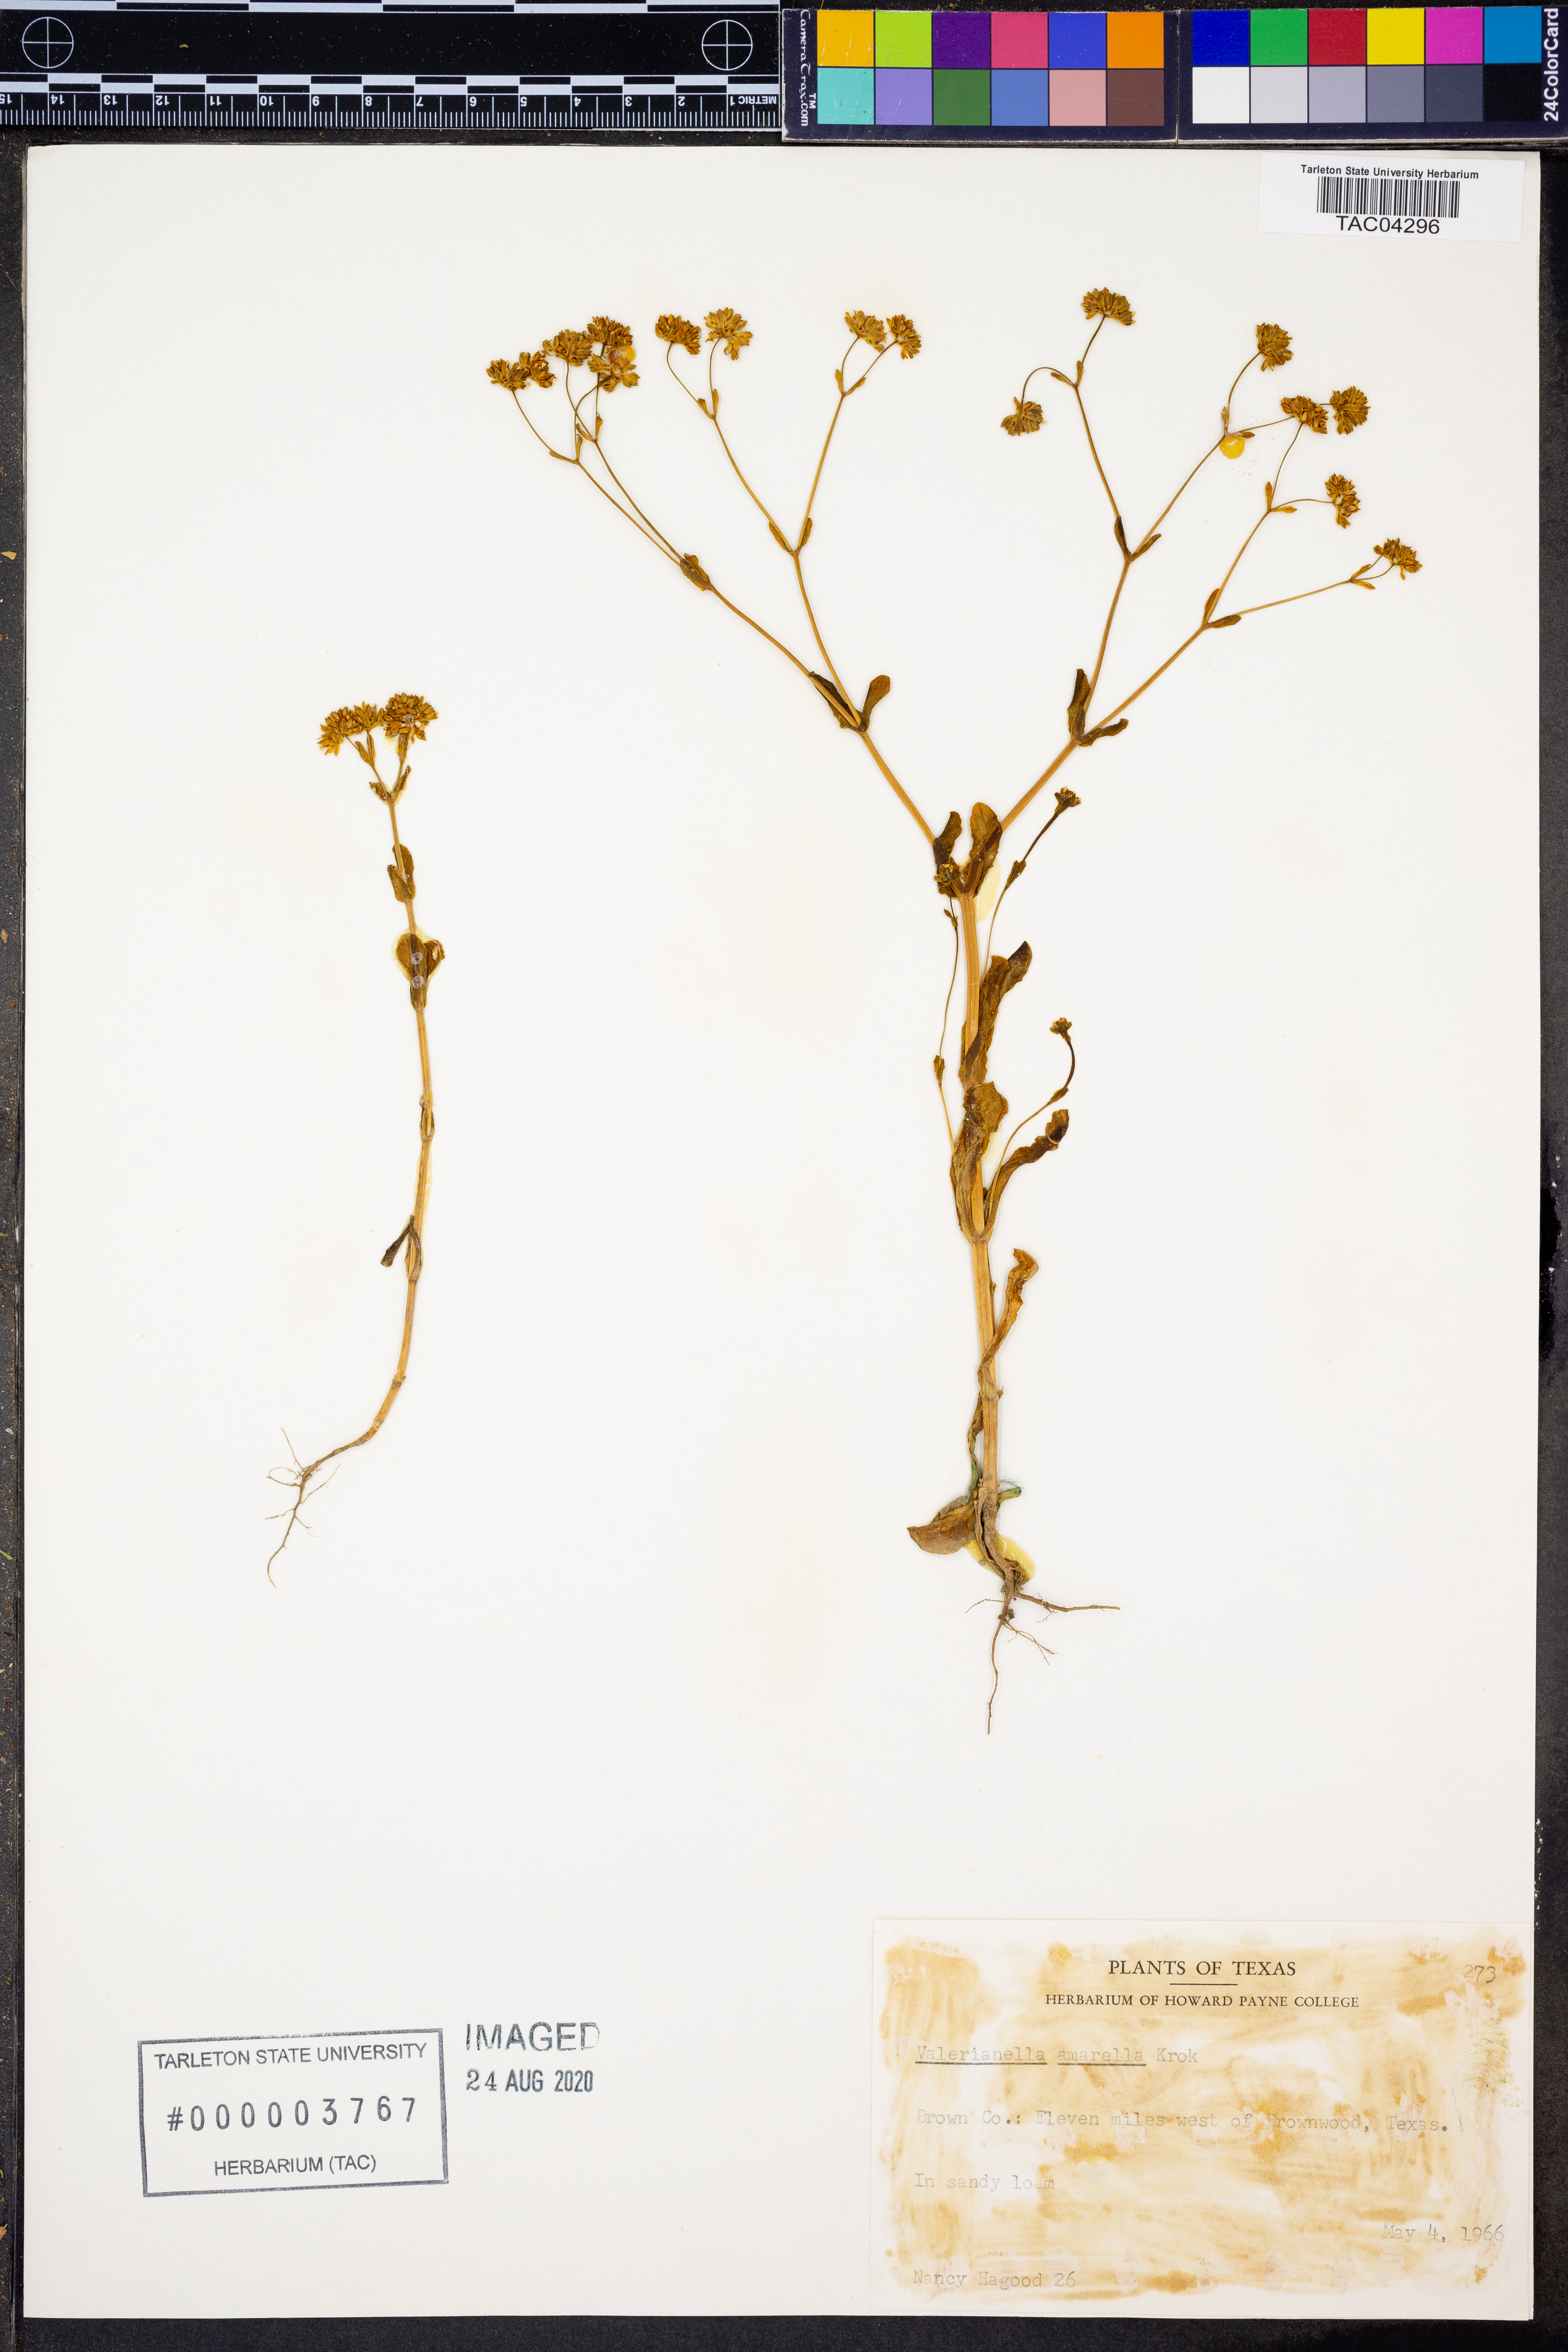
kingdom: Plantae
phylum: Tracheophyta
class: Magnoliopsida
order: Dipsacales
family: Caprifoliaceae
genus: Valerianella
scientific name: Valerianella amarella
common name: Hariy cornsalad
